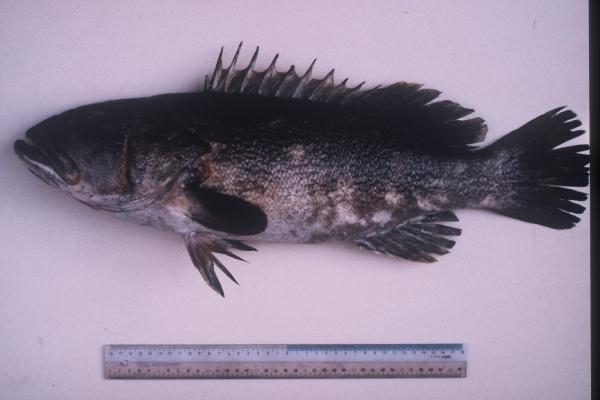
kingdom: Animalia
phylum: Chordata
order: Perciformes
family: Serranidae
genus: Epinephelus
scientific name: Epinephelus bruneus
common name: Longtooth grouper
